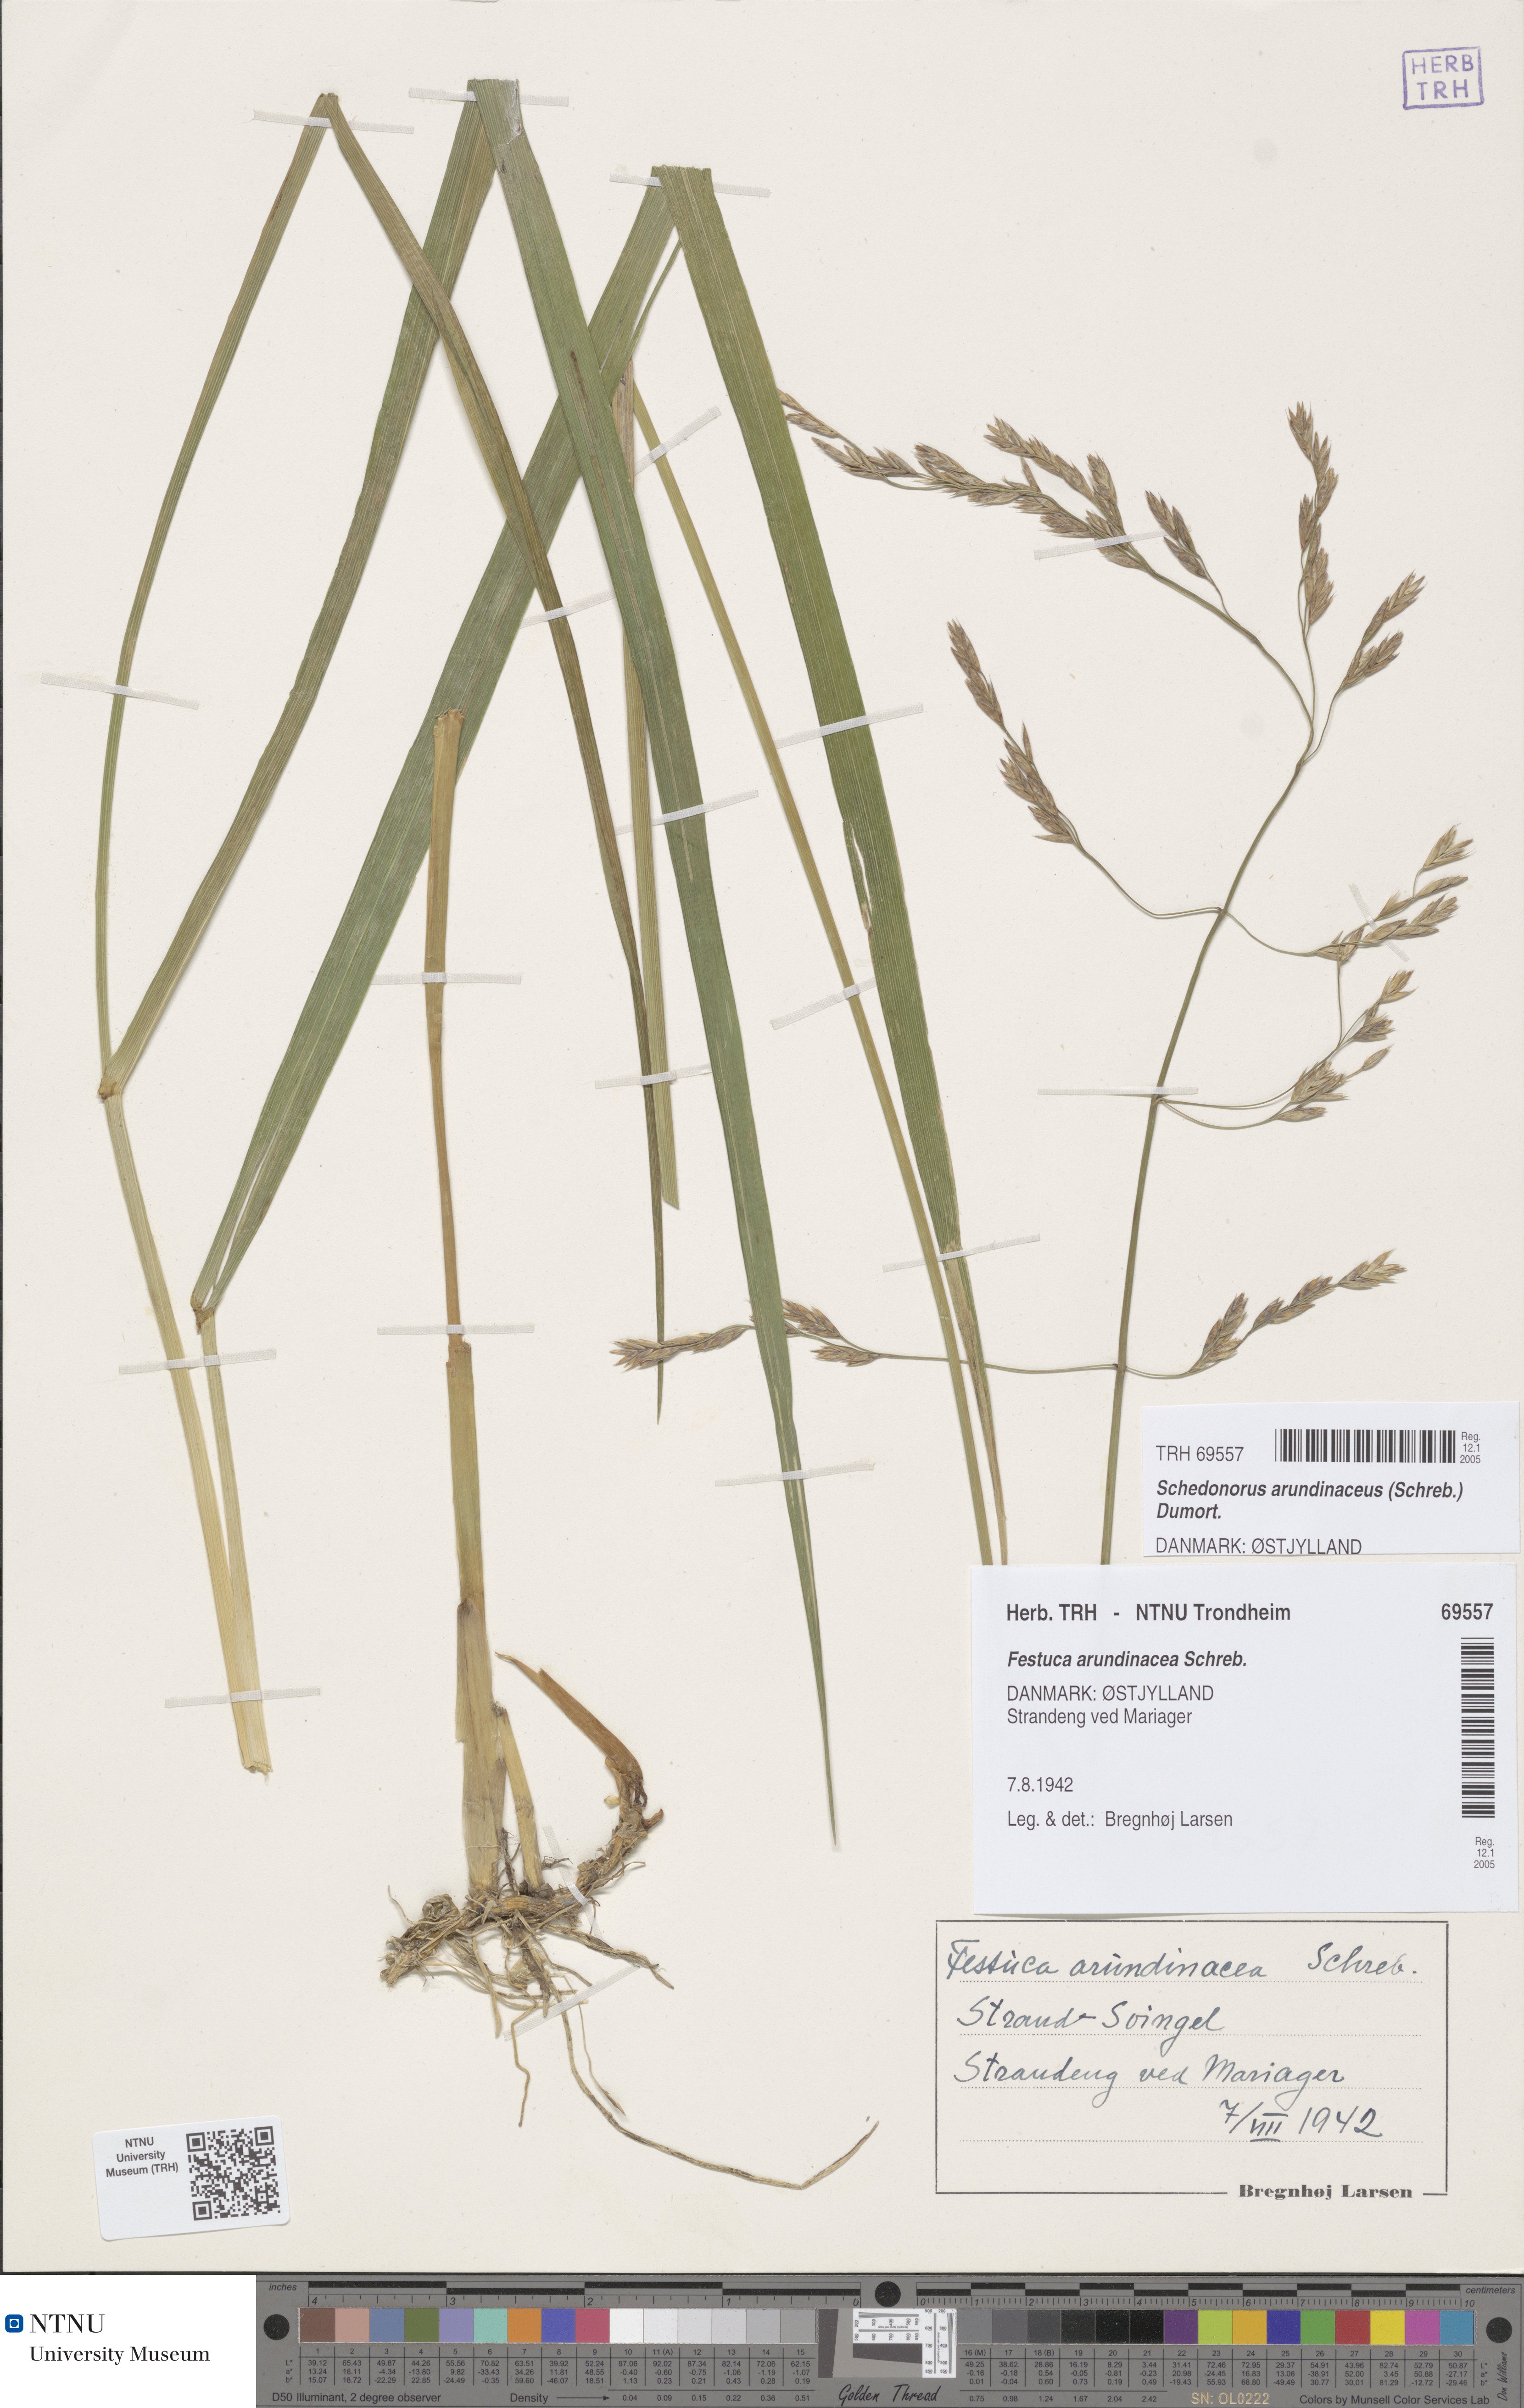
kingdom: Plantae
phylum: Tracheophyta
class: Liliopsida
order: Poales
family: Poaceae
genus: Lolium
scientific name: Lolium arundinaceum
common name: Reed fescue
